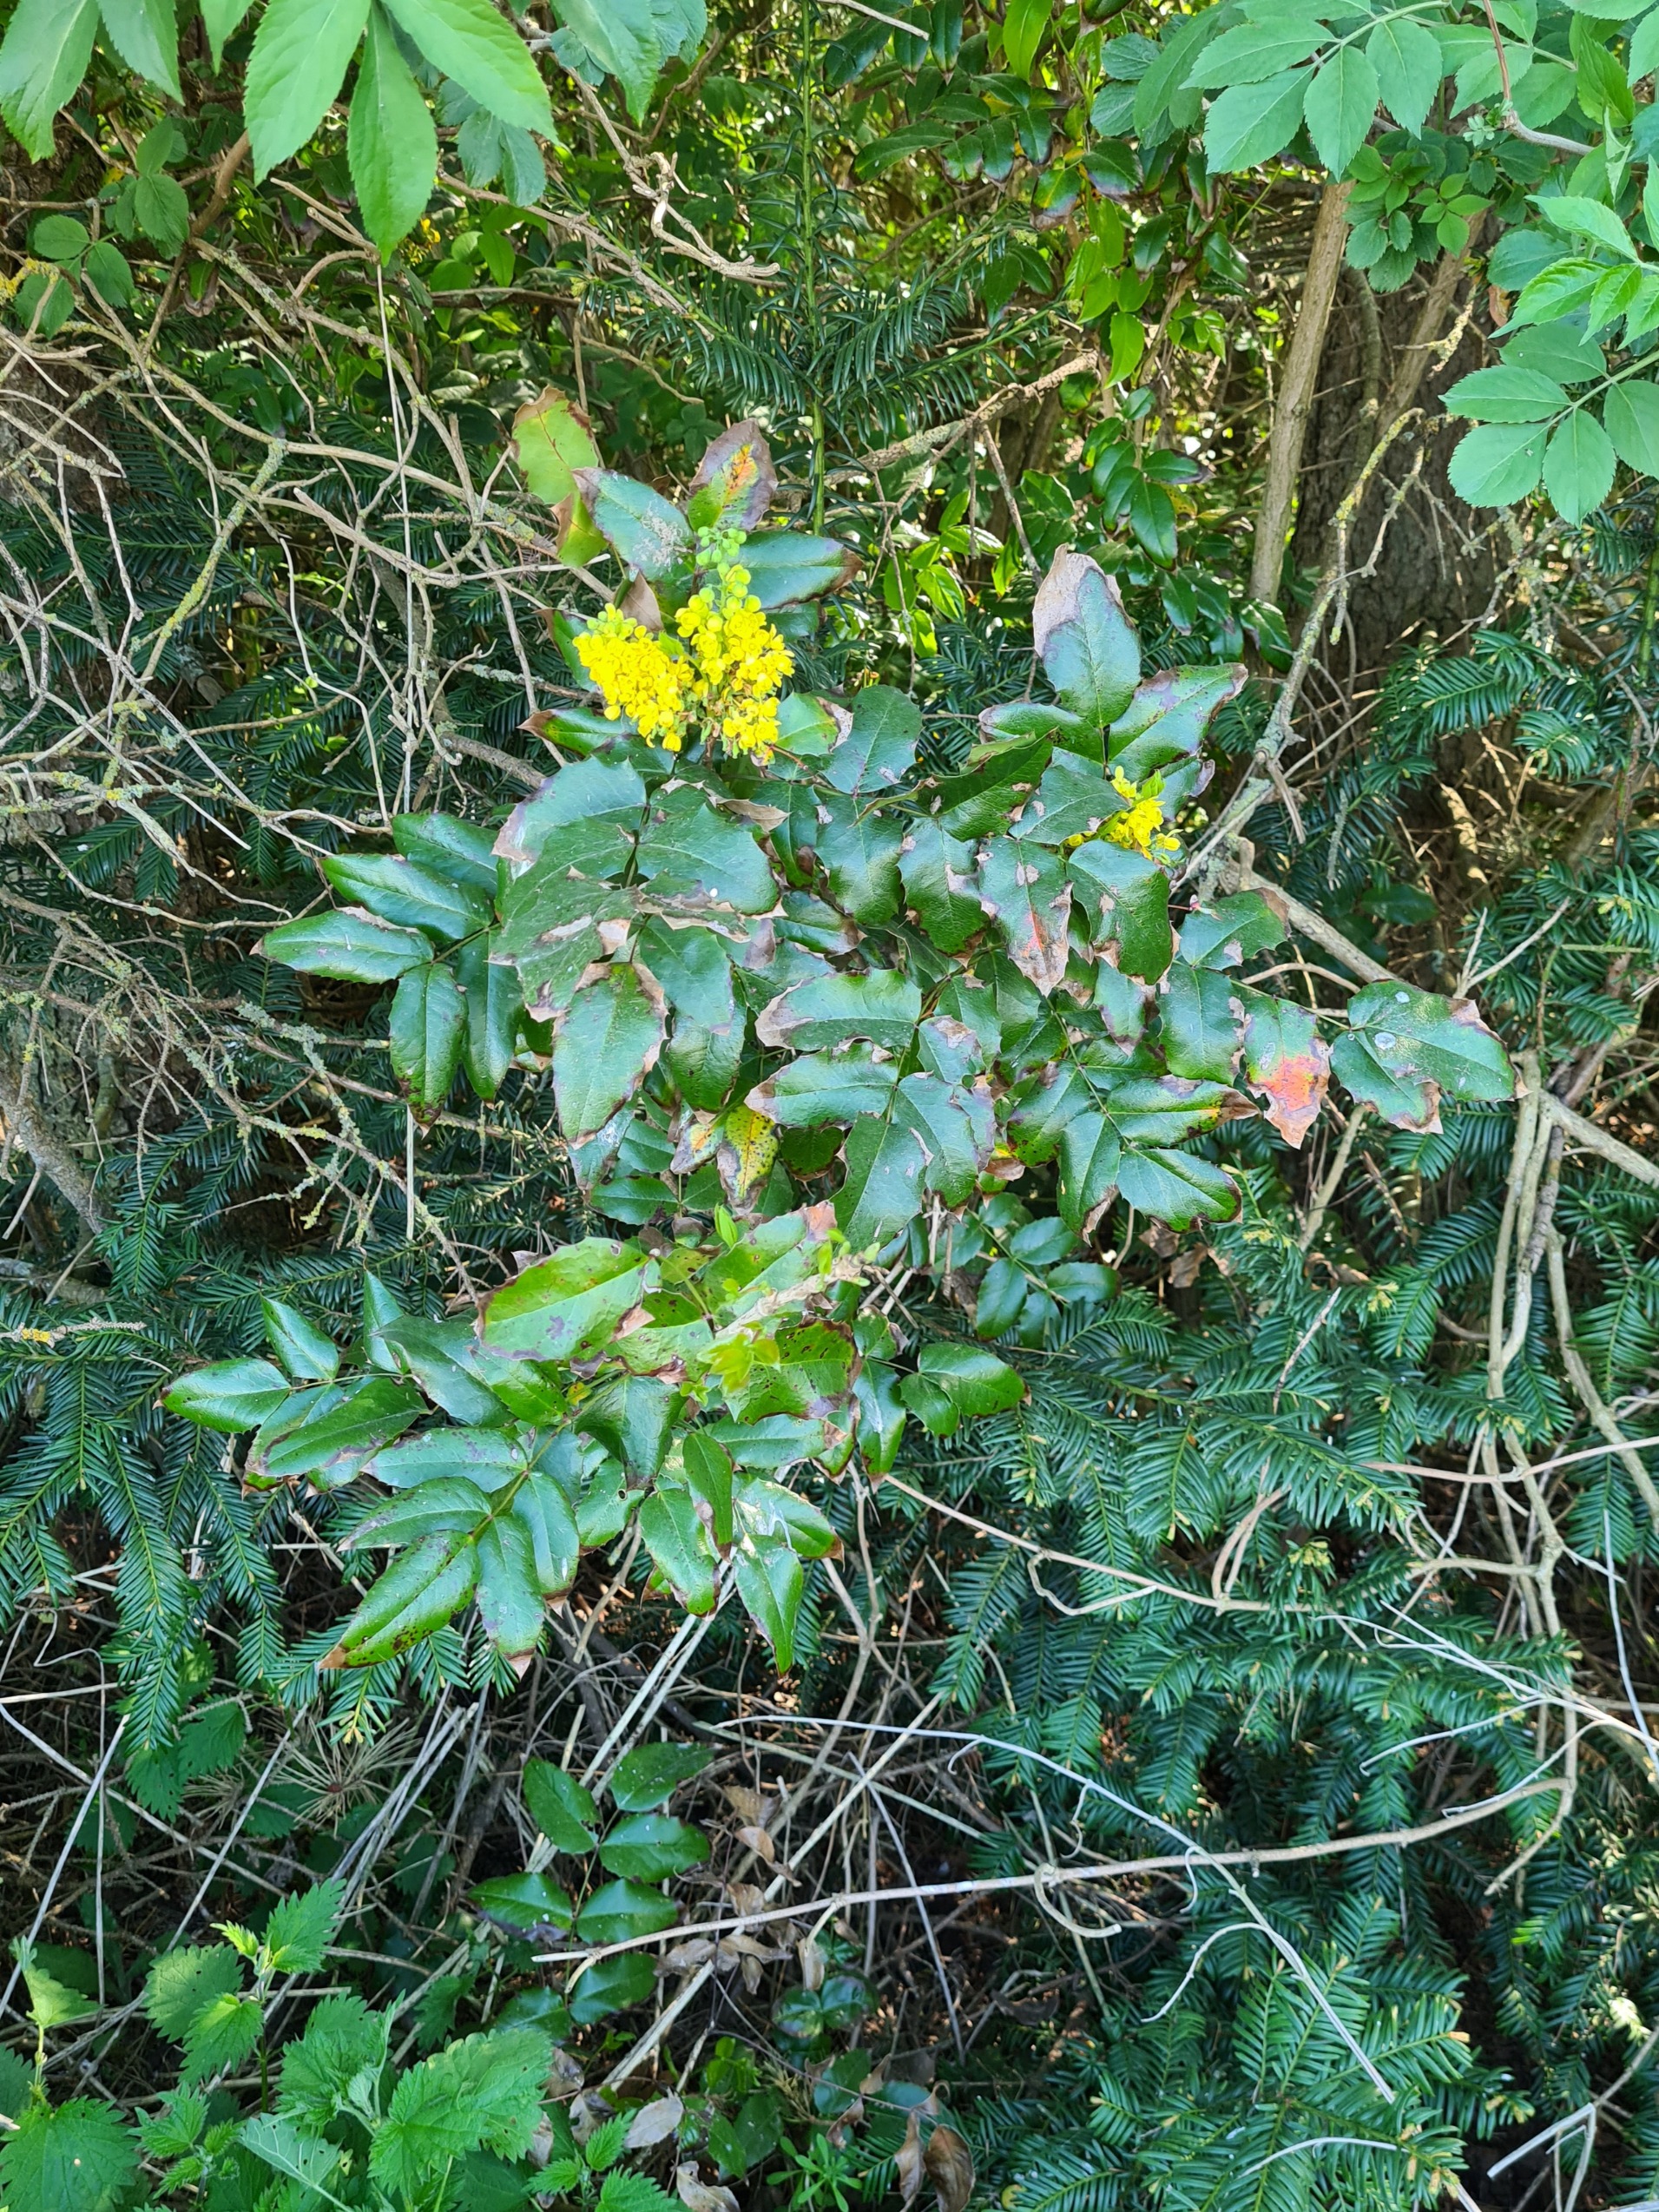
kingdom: Plantae
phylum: Tracheophyta
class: Magnoliopsida
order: Ranunculales
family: Berberidaceae
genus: Mahonia
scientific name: Mahonia aquifolium
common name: Almindelig mahonie
